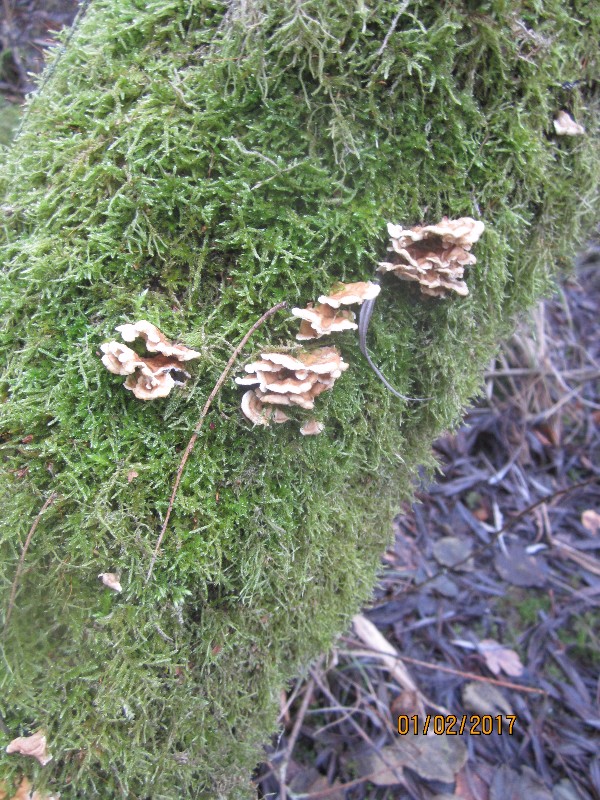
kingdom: Fungi
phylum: Basidiomycota
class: Agaricomycetes
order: Amylocorticiales
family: Amylocorticiaceae
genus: Plicaturopsis
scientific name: Plicaturopsis crispa
